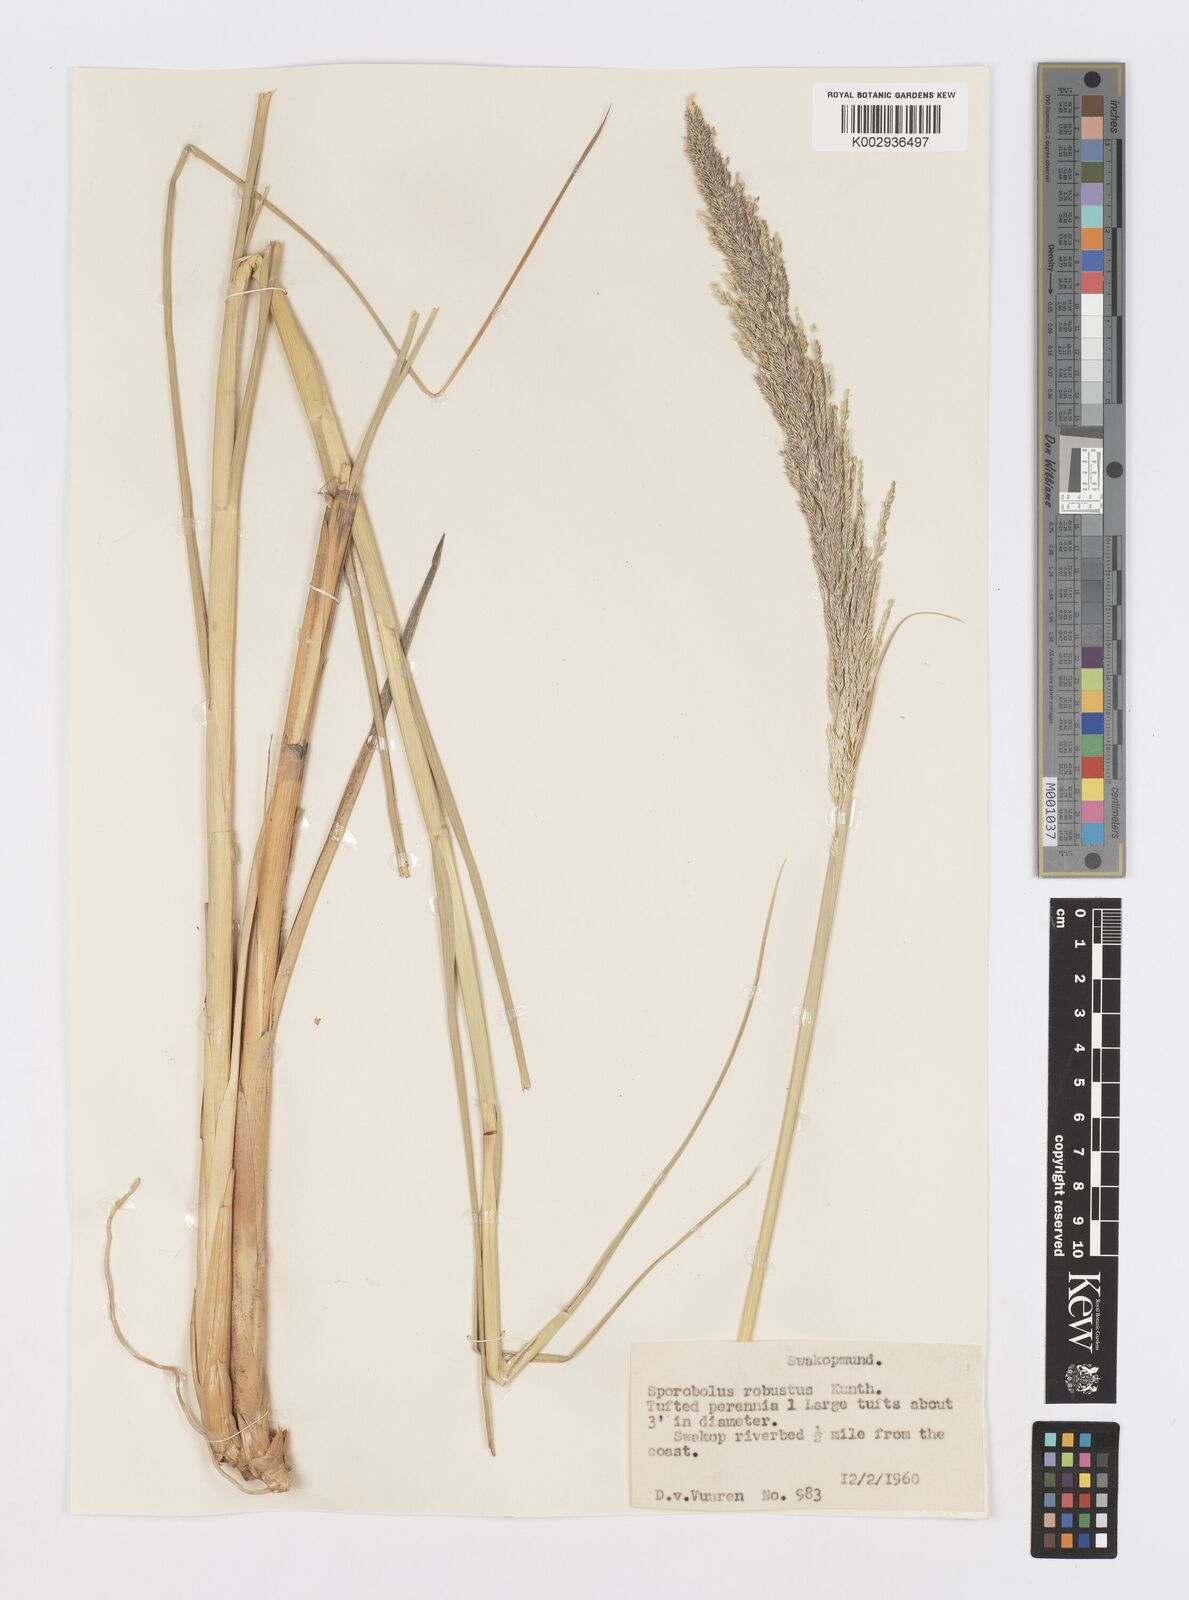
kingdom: Plantae
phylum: Tracheophyta
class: Liliopsida
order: Poales
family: Poaceae
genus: Sporobolus
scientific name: Sporobolus consimilis
